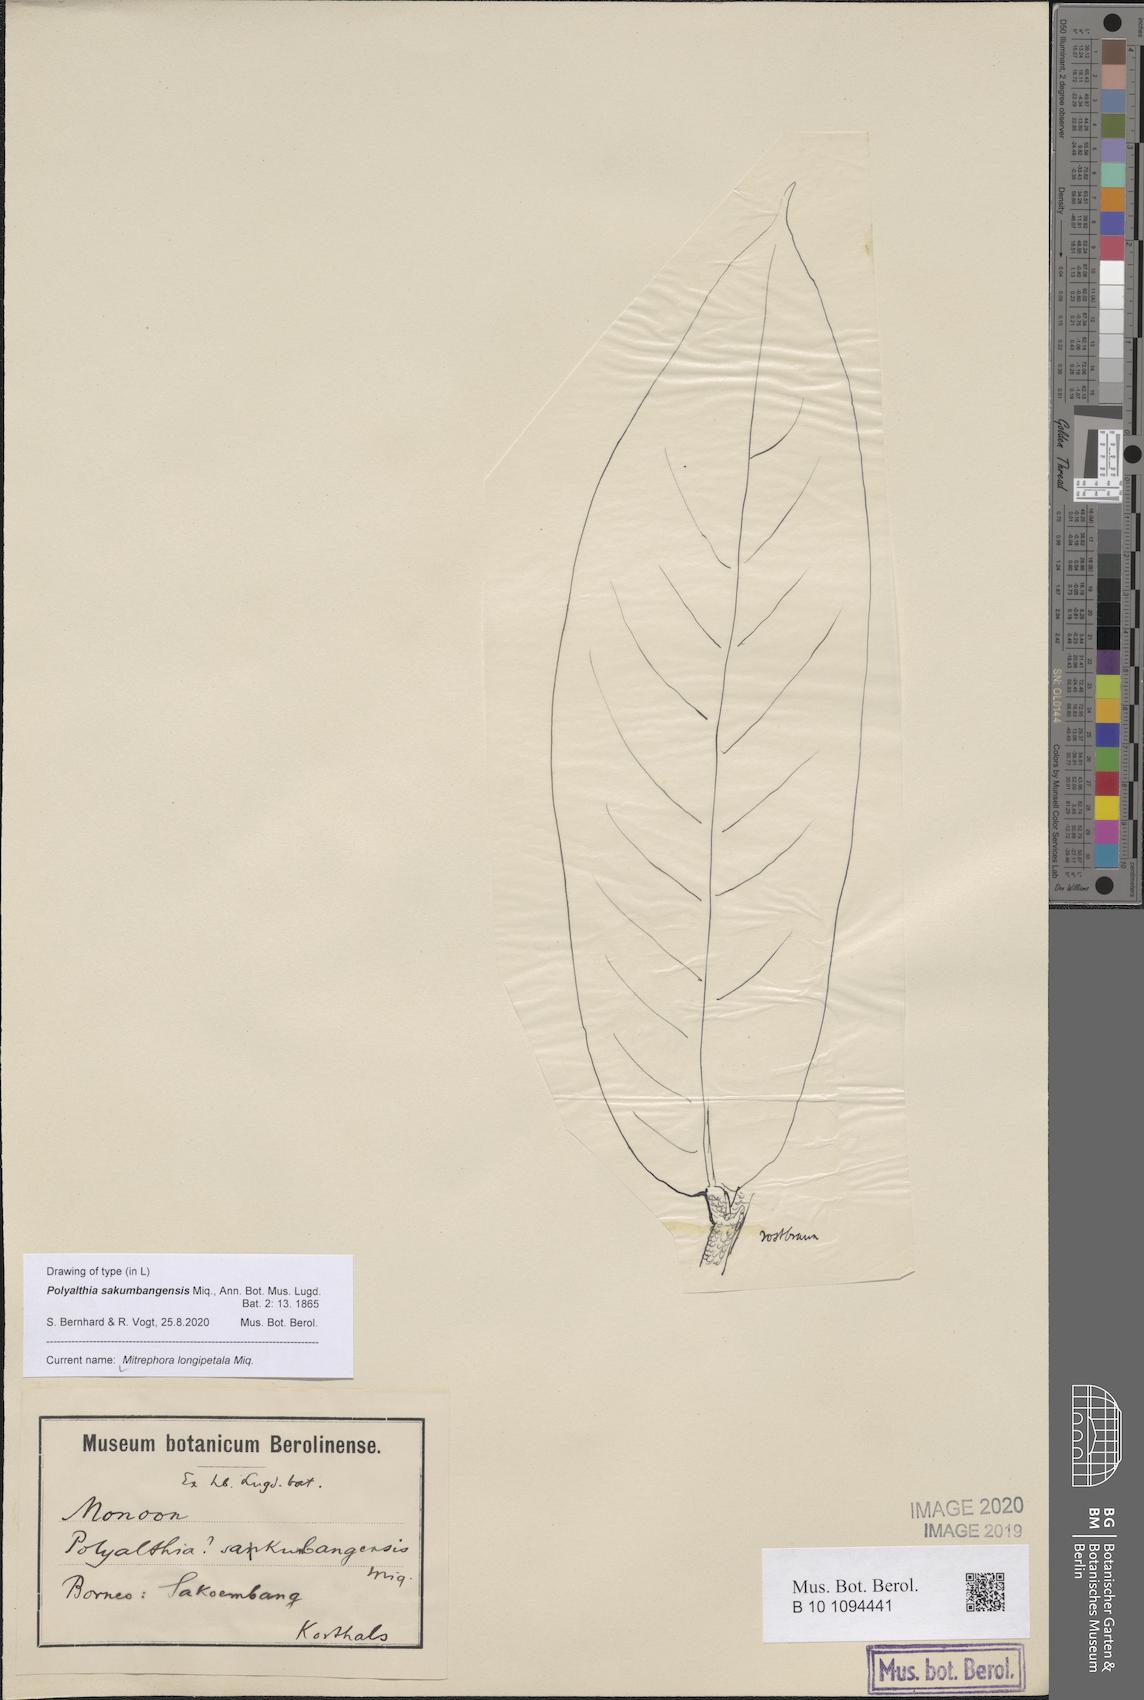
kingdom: Plantae
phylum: Tracheophyta
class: Magnoliopsida
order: Magnoliales
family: Annonaceae
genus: Mitrephora
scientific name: Mitrephora longipetala
